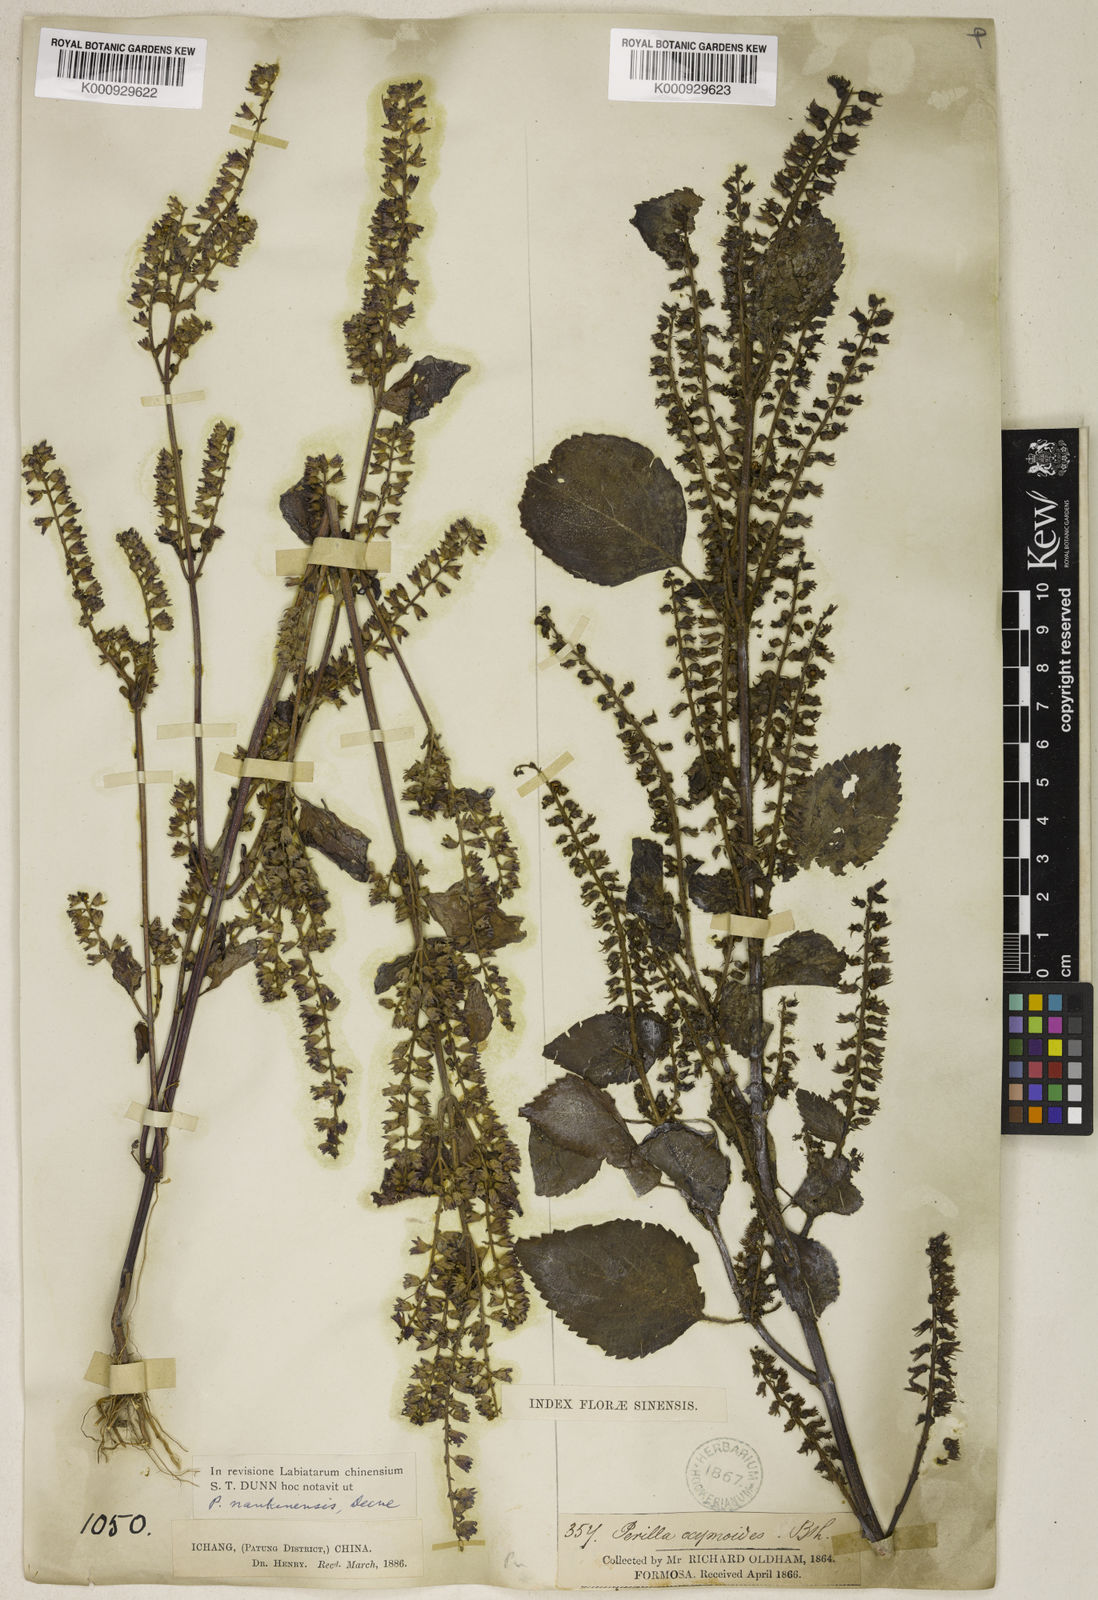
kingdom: Plantae
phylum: Tracheophyta
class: Magnoliopsida
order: Lamiales
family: Lamiaceae
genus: Perilla
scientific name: Perilla frutescens
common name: Perilla
